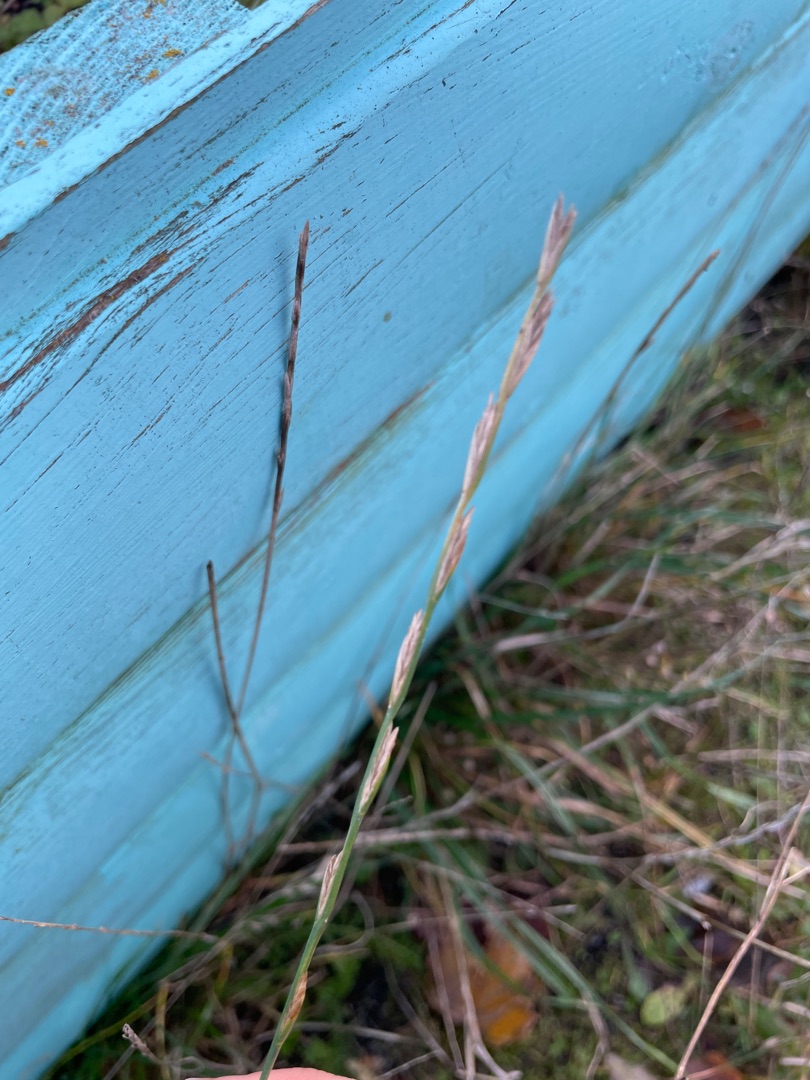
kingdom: Plantae
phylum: Tracheophyta
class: Liliopsida
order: Poales
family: Poaceae
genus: Lolium
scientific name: Lolium perenne
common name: Almindelig rajgræs
